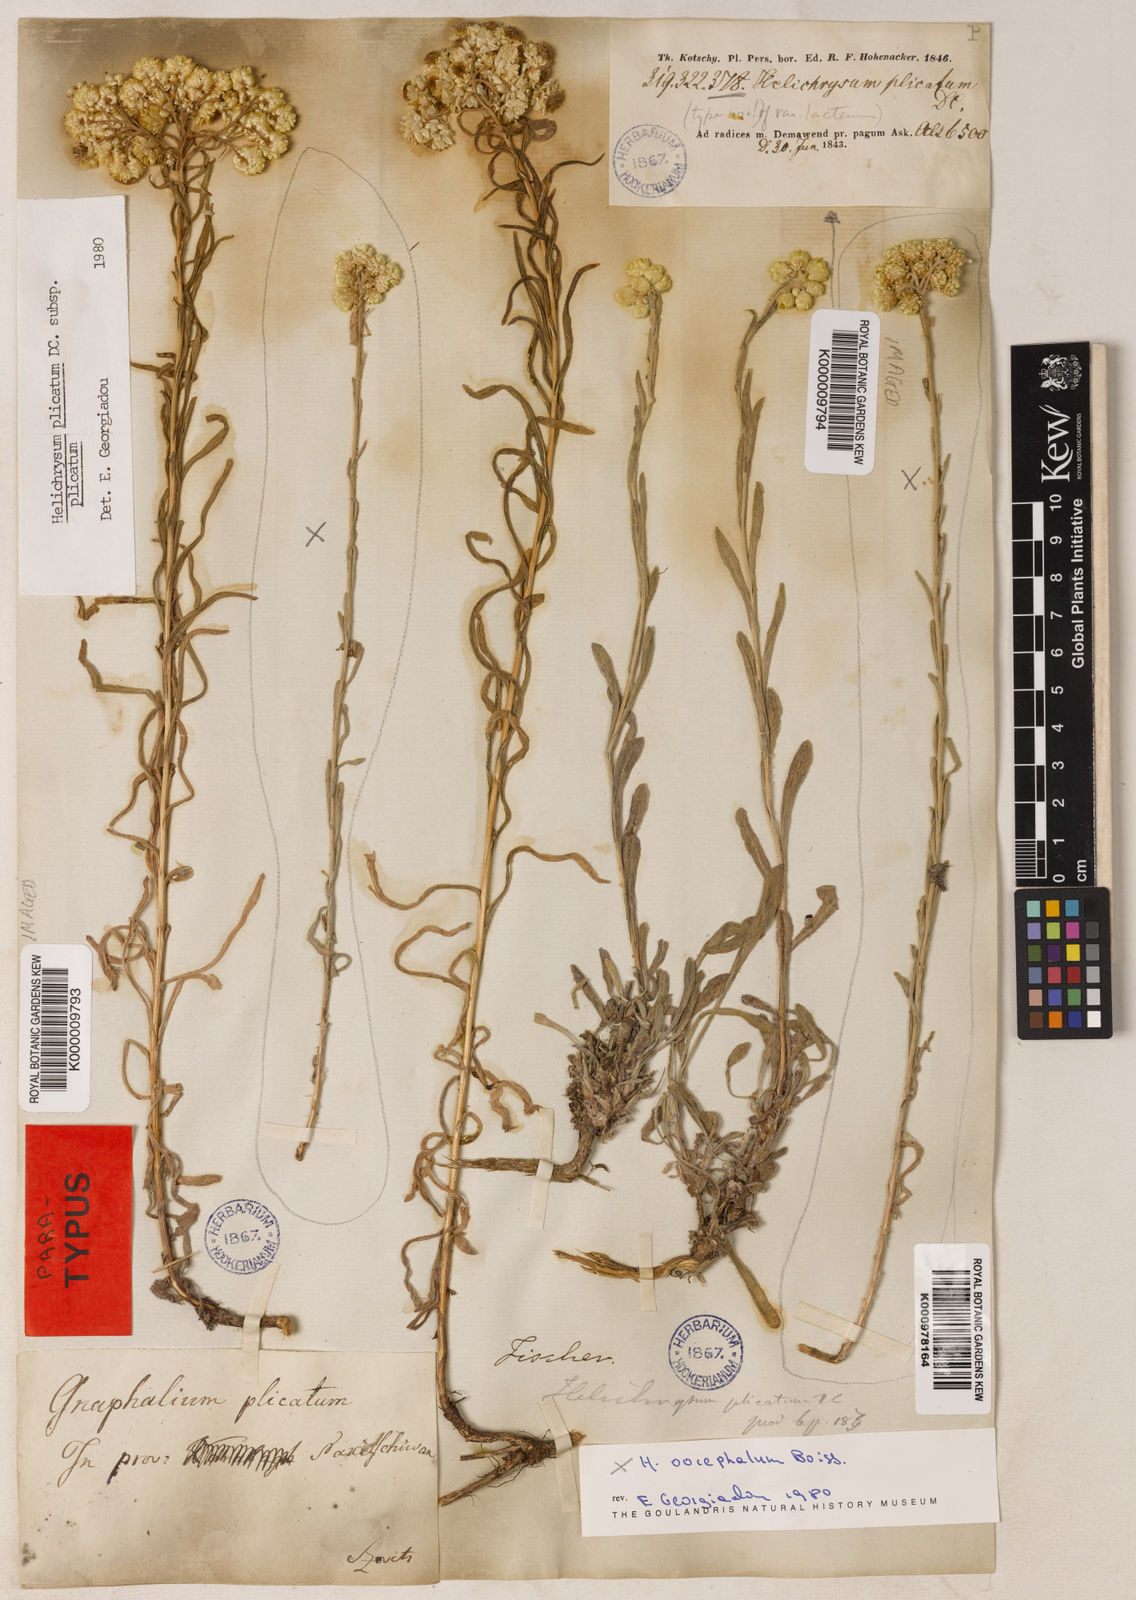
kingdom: Plantae
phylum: Tracheophyta
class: Magnoliopsida
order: Asterales
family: Asteraceae
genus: Helichrysum
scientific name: Helichrysum plicatum
